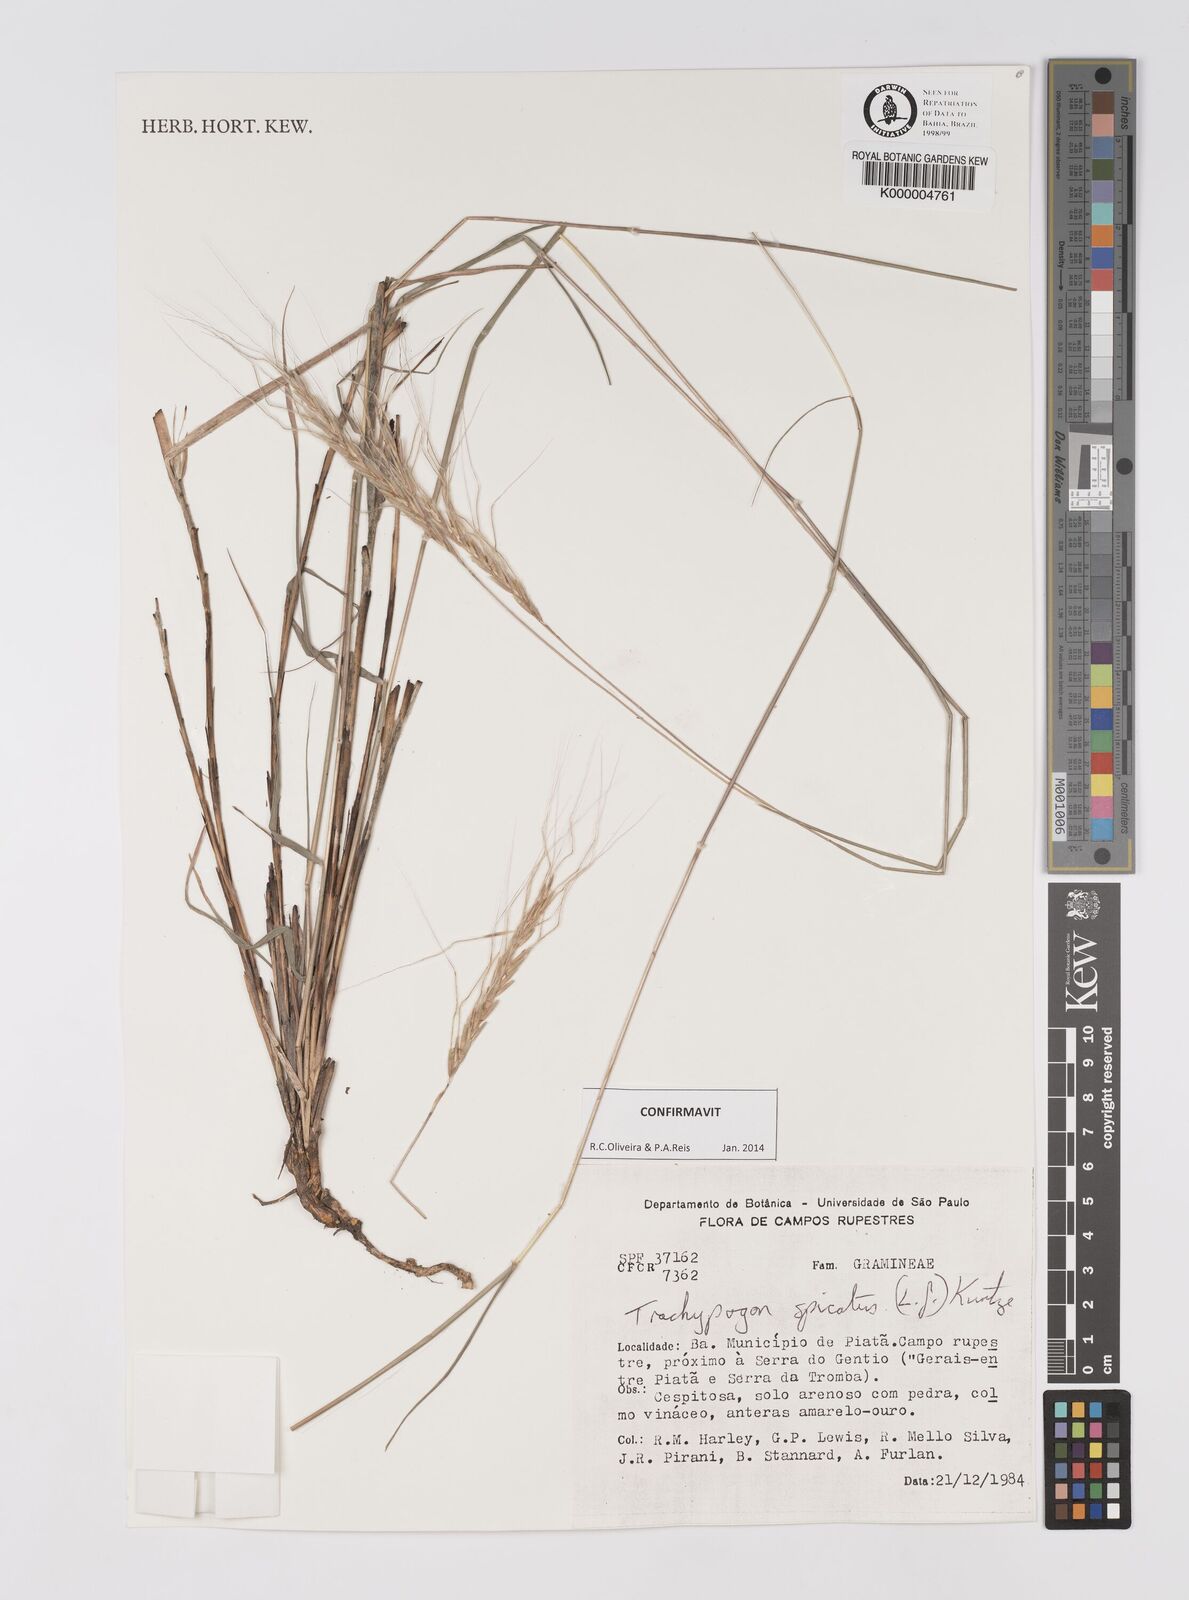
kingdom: Plantae
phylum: Tracheophyta
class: Liliopsida
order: Poales
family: Poaceae
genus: Trachypogon
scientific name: Trachypogon spicatus
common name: Crinkle-awn
